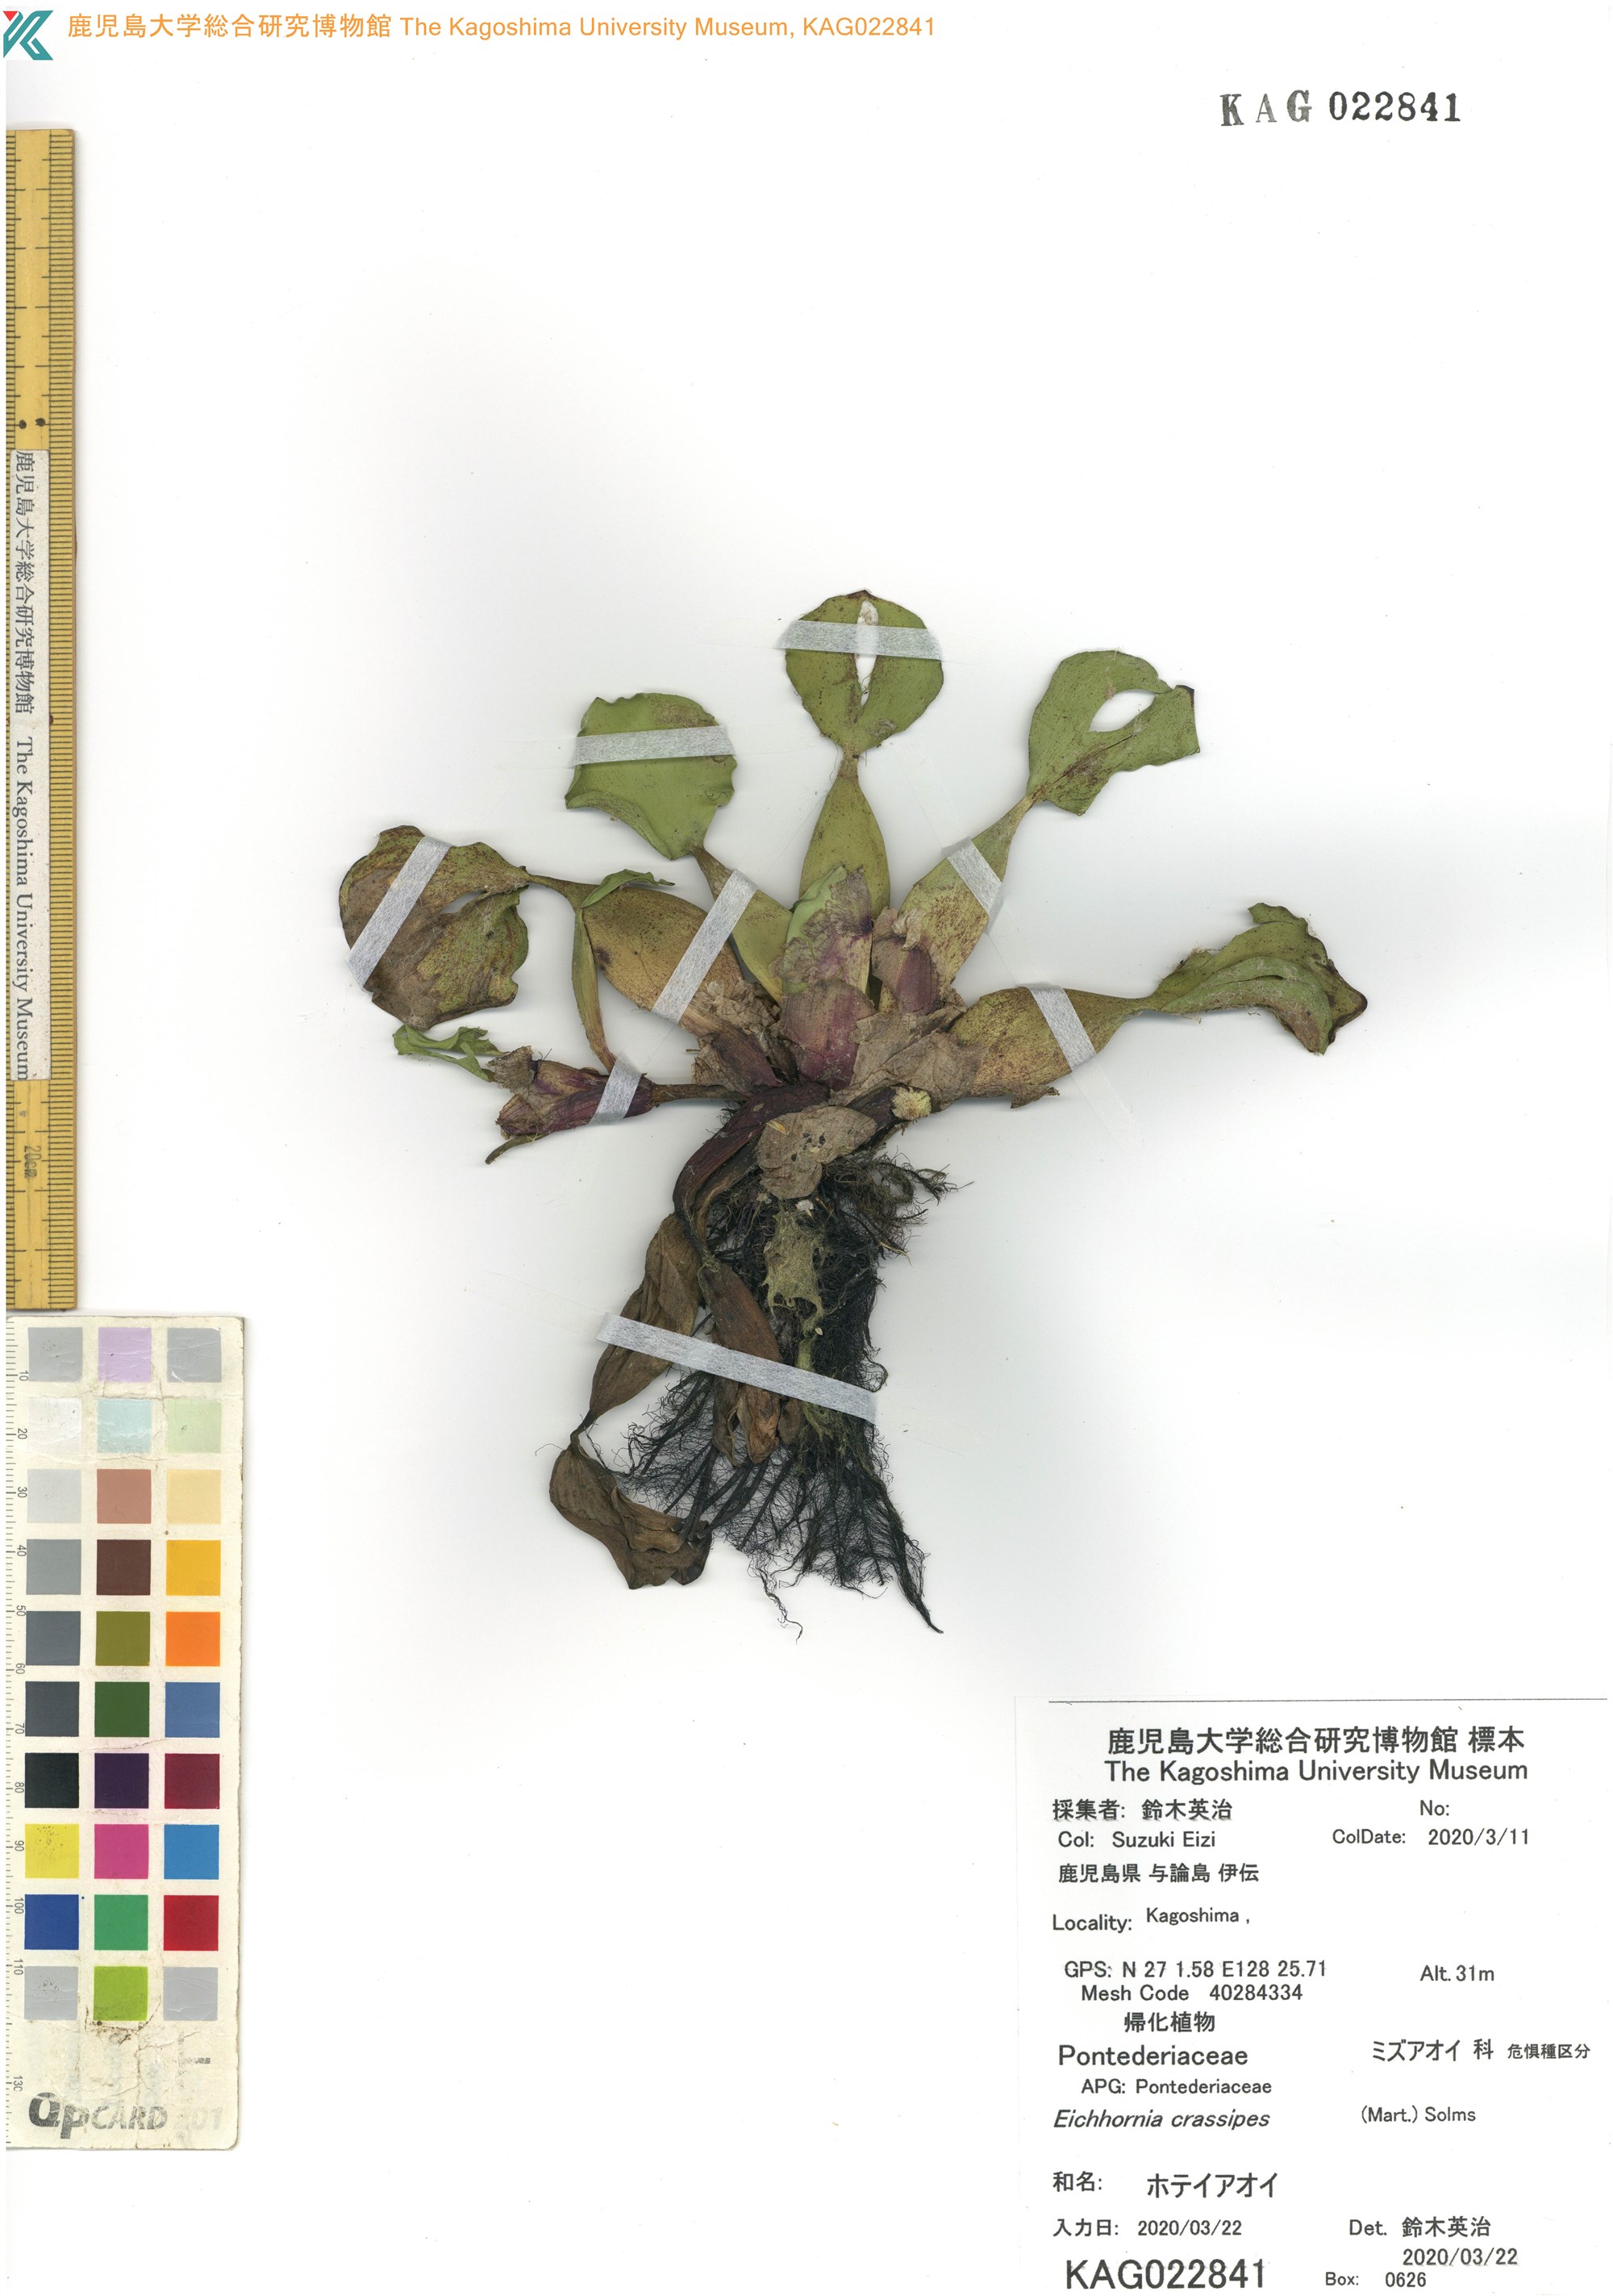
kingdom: Plantae
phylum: Tracheophyta
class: Liliopsida
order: Commelinales
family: Pontederiaceae
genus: Pontederia
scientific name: Pontederia crassipes
